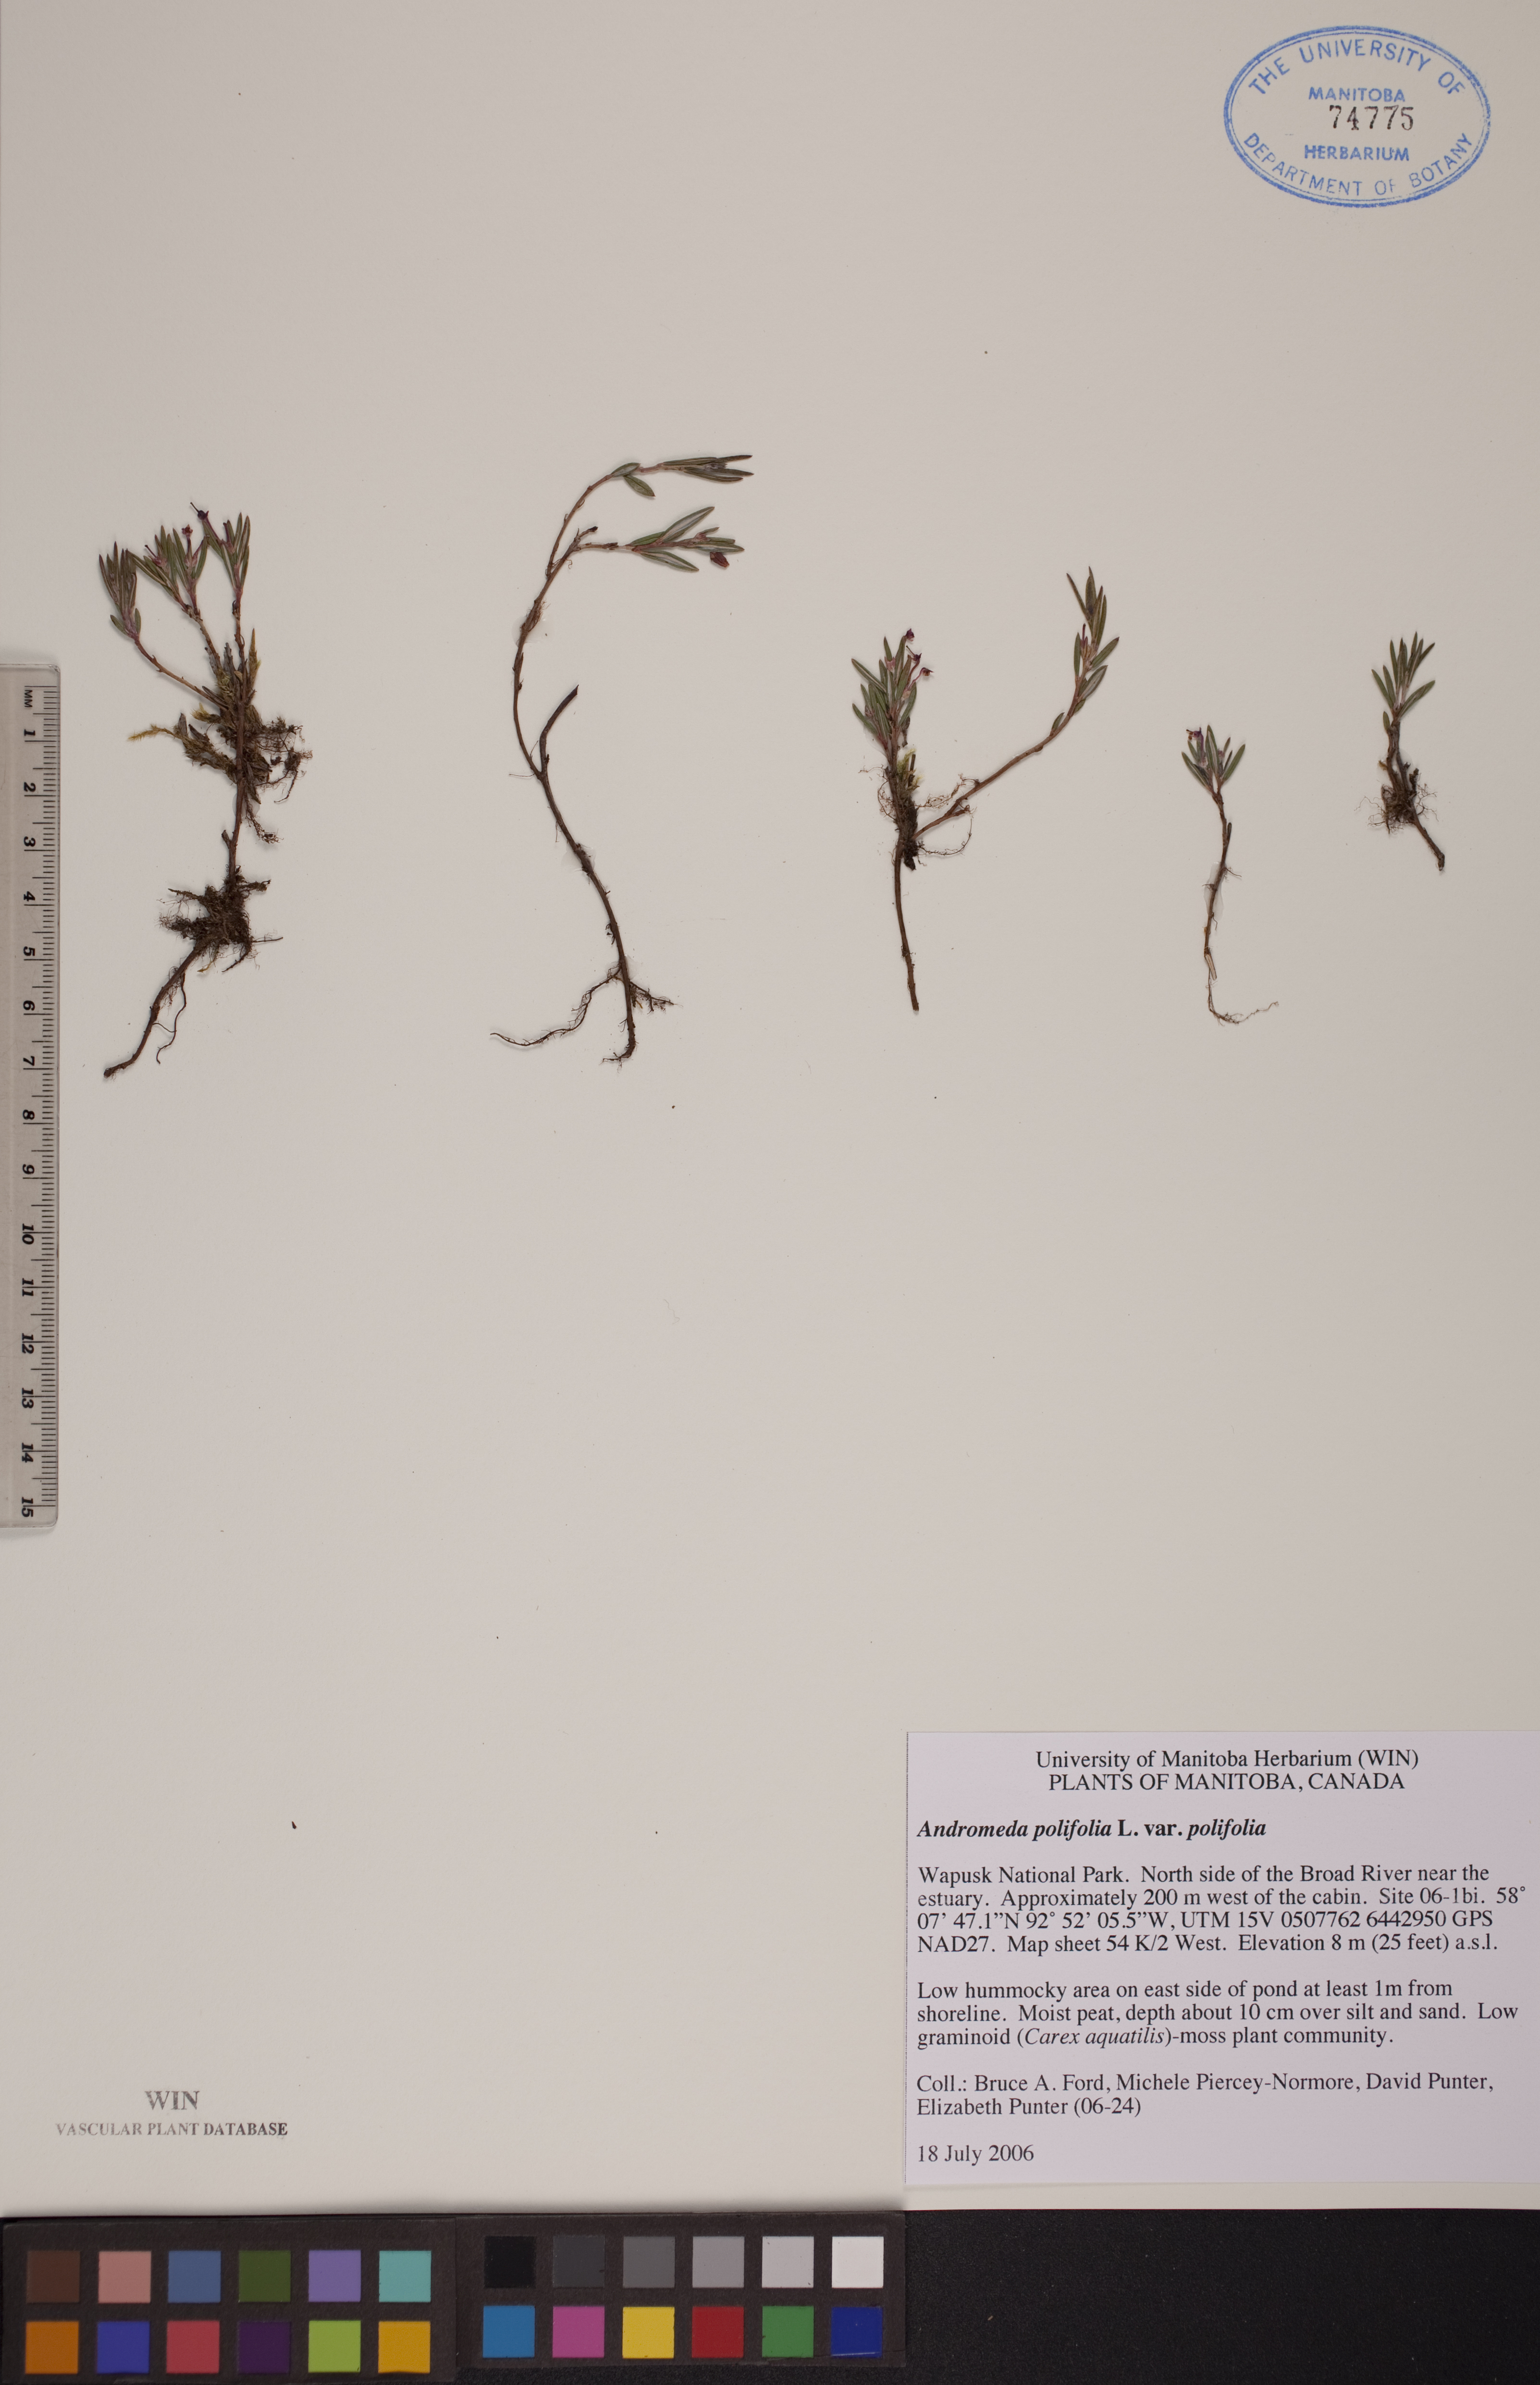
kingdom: Plantae
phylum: Tracheophyta
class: Magnoliopsida
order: Ericales
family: Ericaceae
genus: Andromeda
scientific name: Andromeda polifolia
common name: Bog-rosemary
